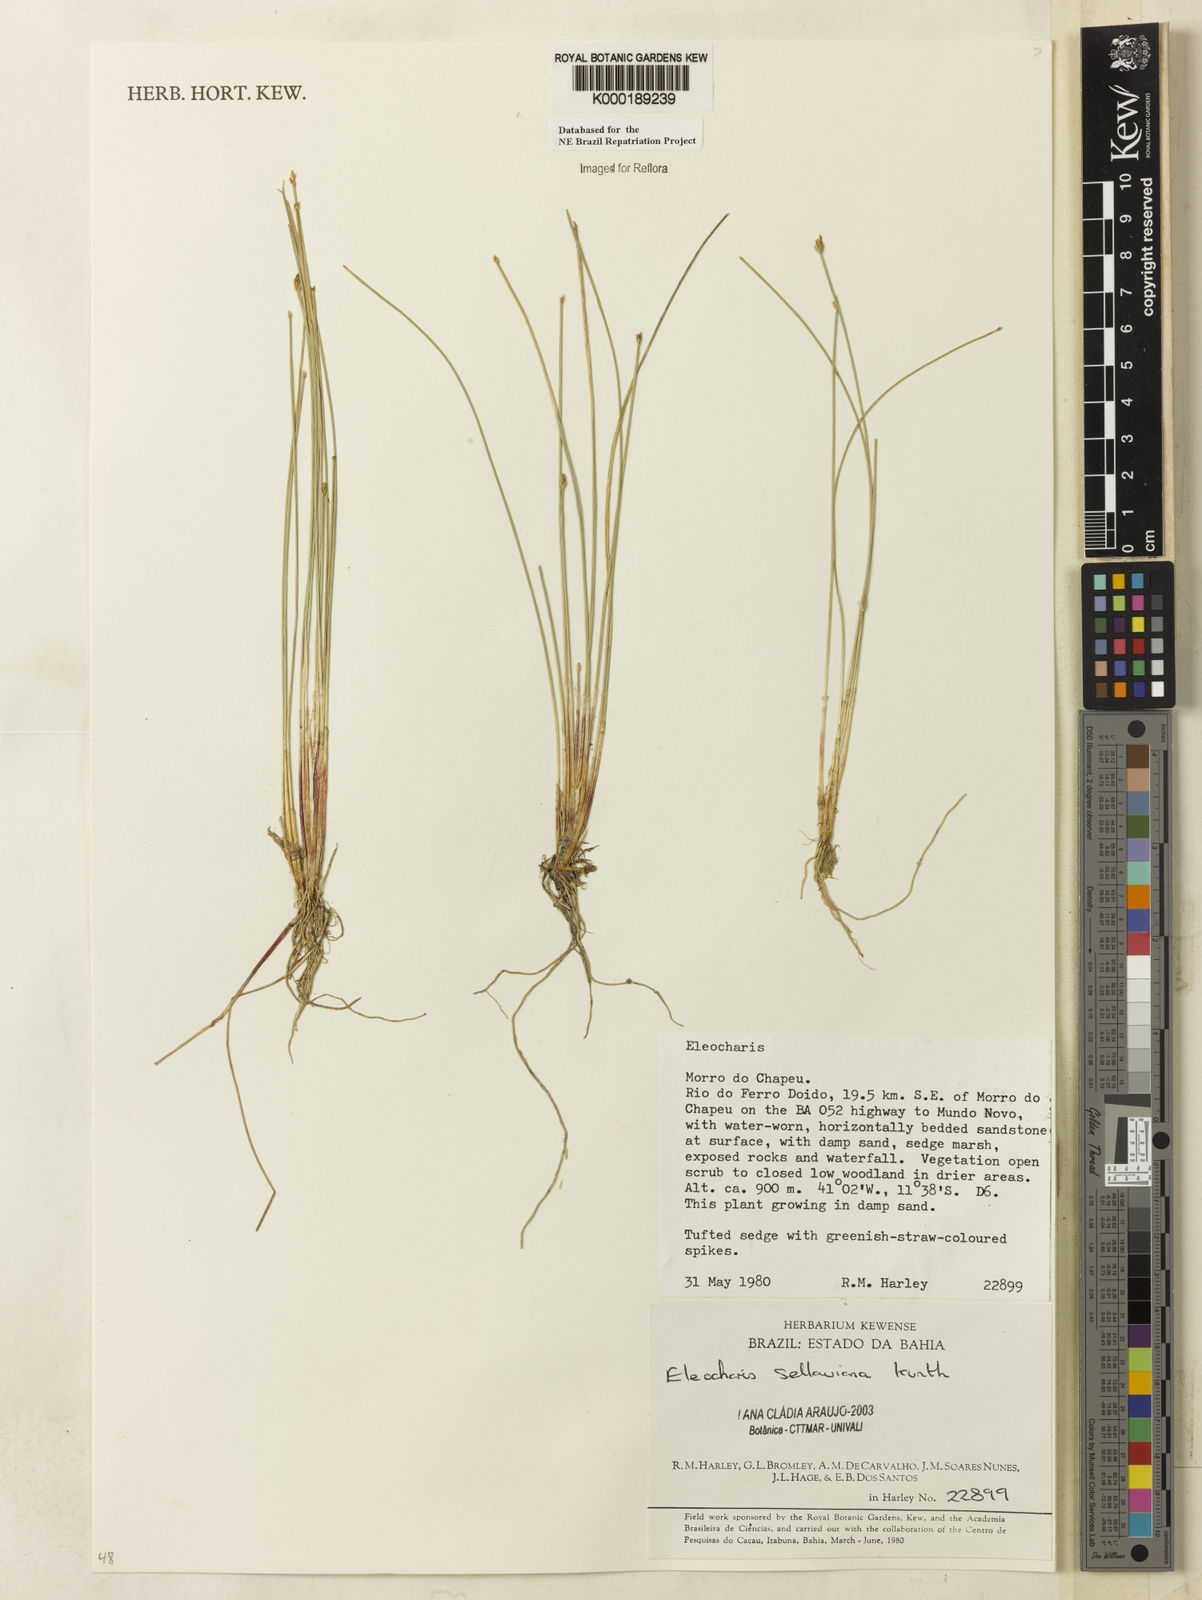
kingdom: Plantae
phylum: Tracheophyta
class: Liliopsida
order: Poales
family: Cyperaceae
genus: Eleocharis
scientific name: Eleocharis sellowiana
